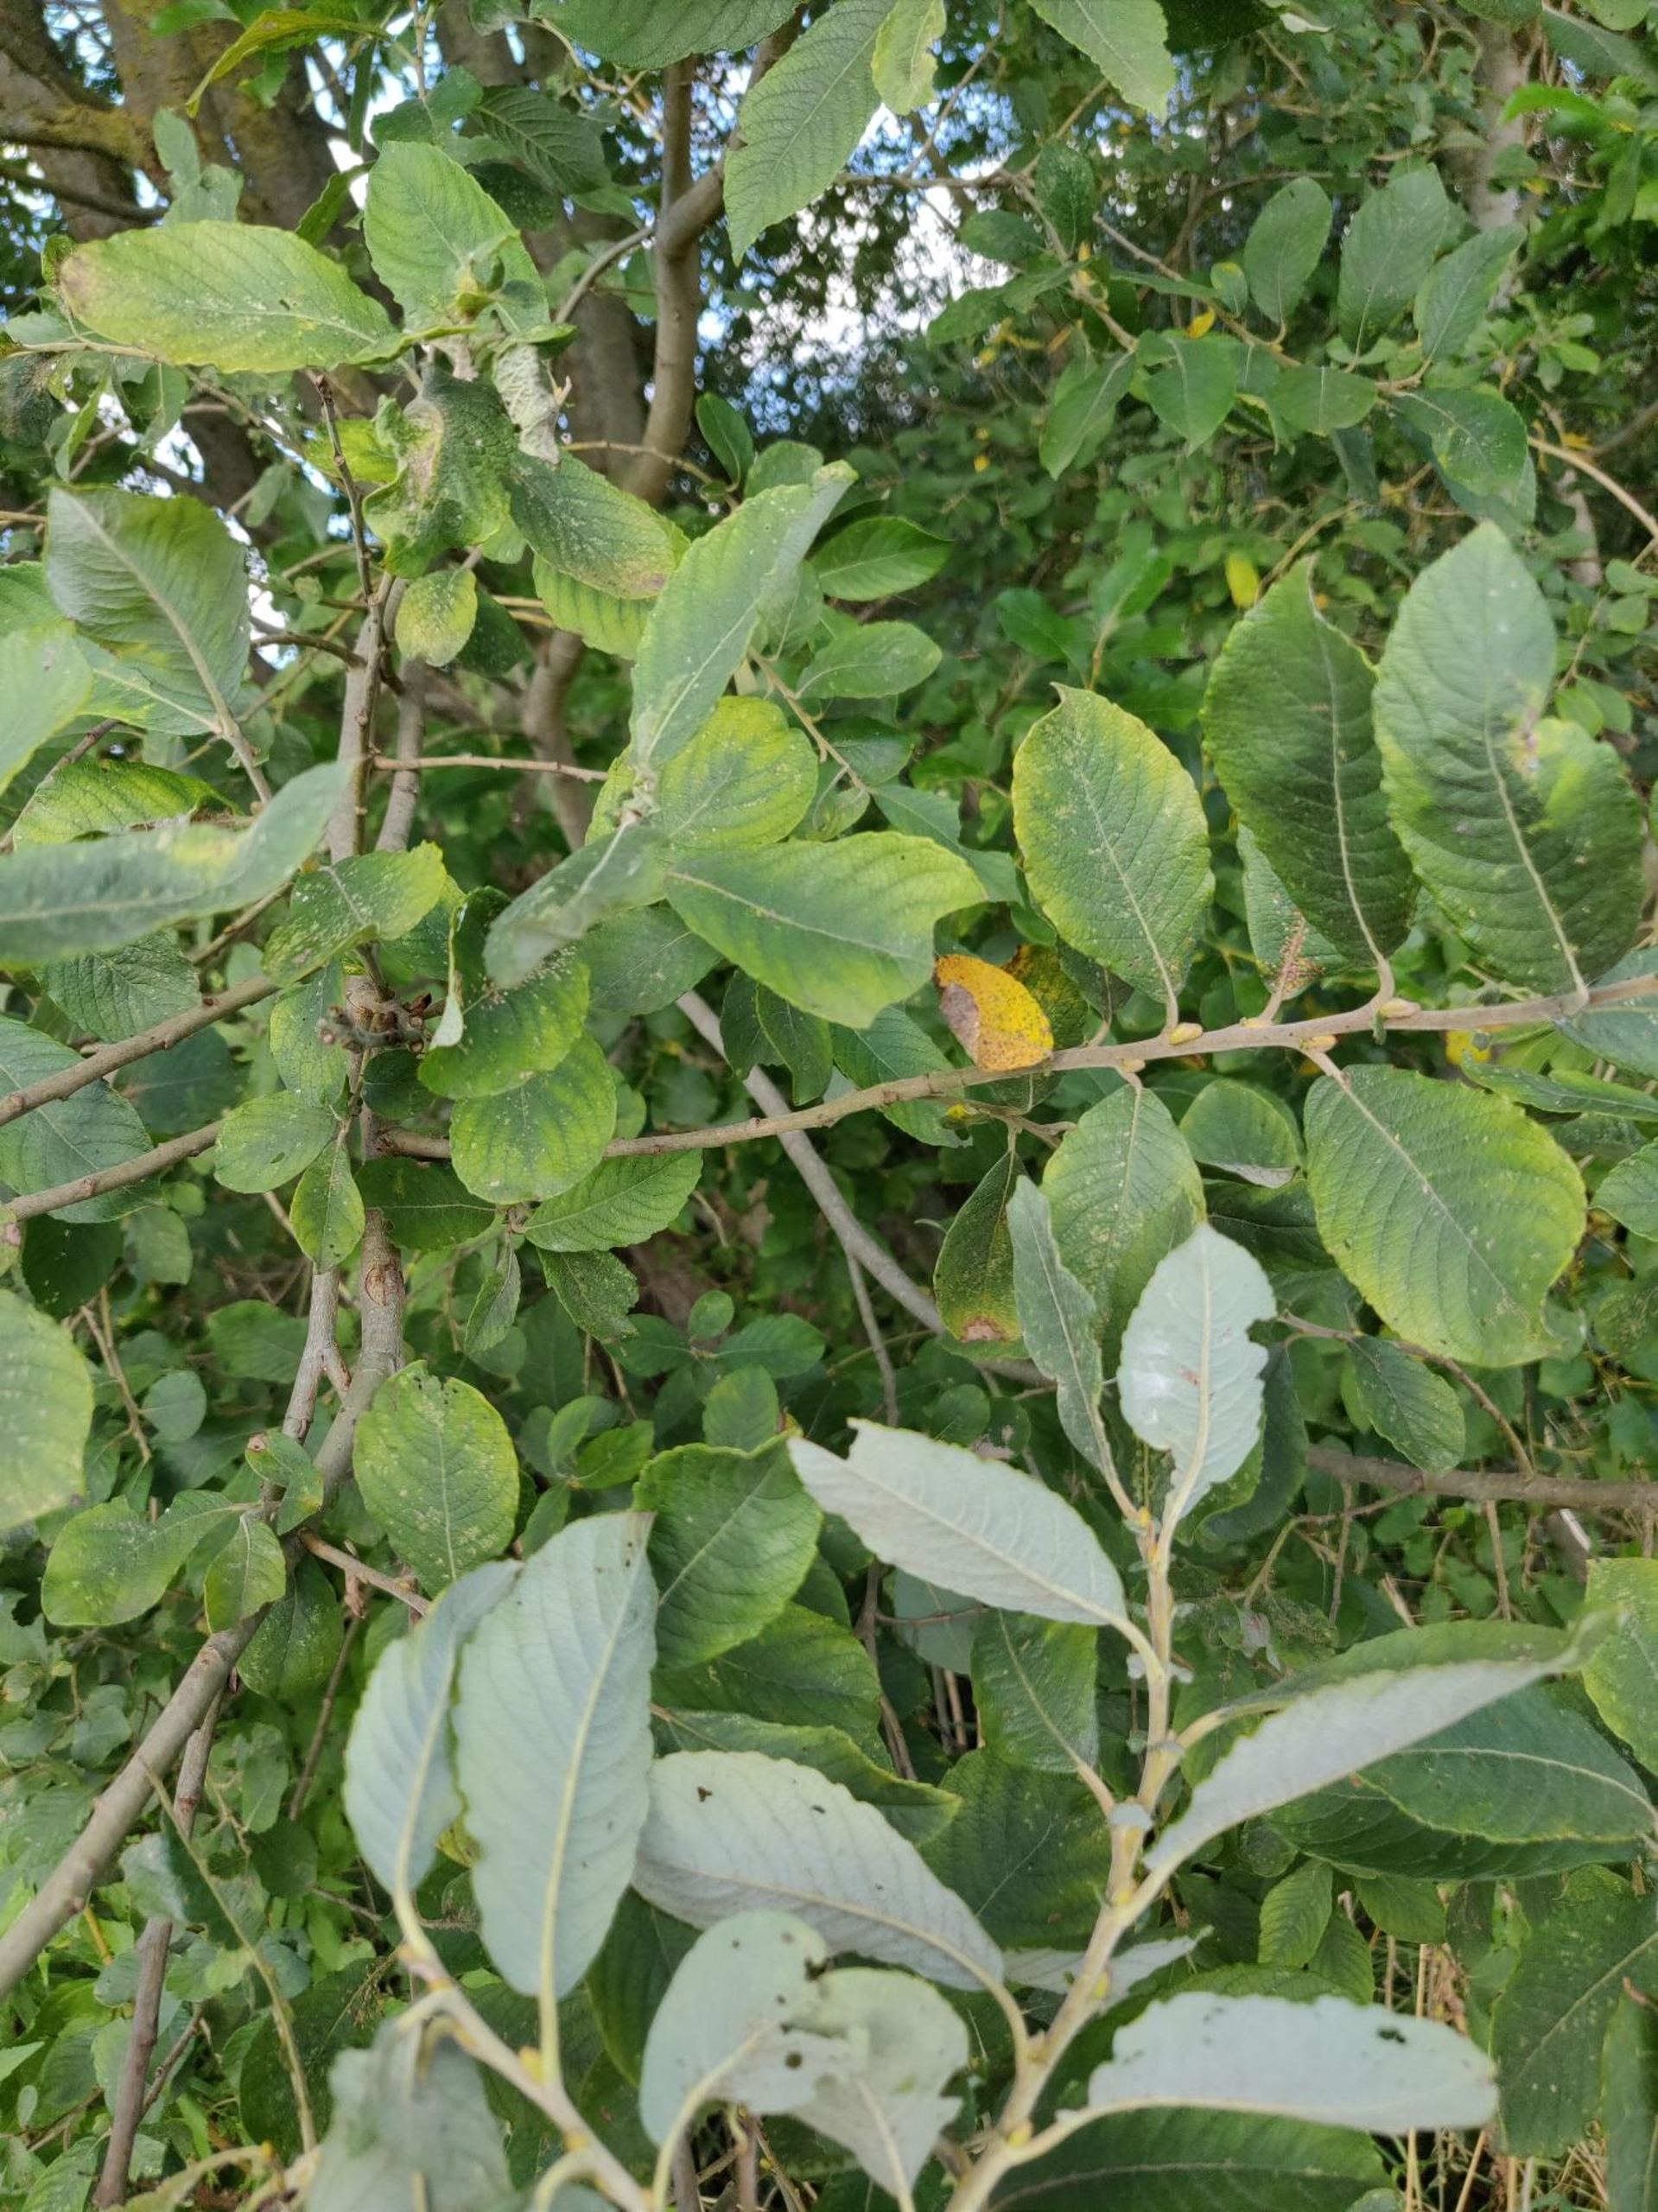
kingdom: Plantae
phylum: Tracheophyta
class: Magnoliopsida
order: Malpighiales
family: Salicaceae
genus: Salix
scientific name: Salix cinerea
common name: Grå-pil
